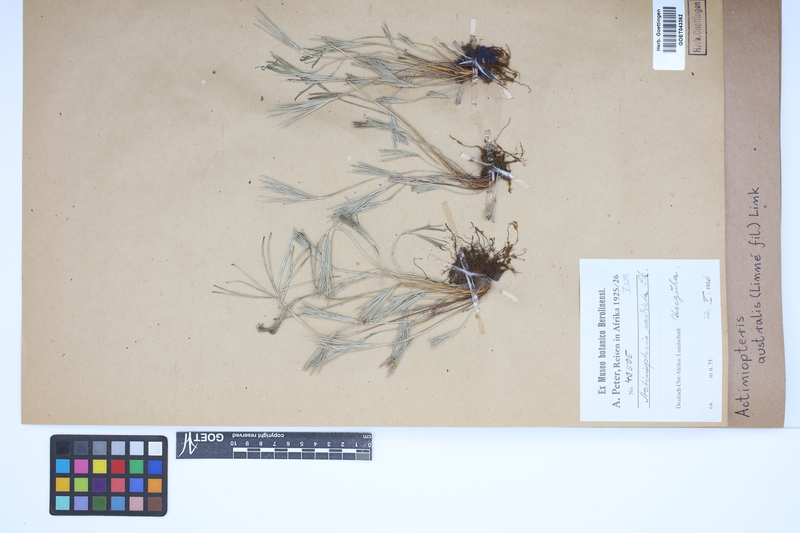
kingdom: Plantae
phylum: Tracheophyta
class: Polypodiopsida
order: Polypodiales
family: Pteridaceae
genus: Actiniopteris
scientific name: Actiniopteris australis
